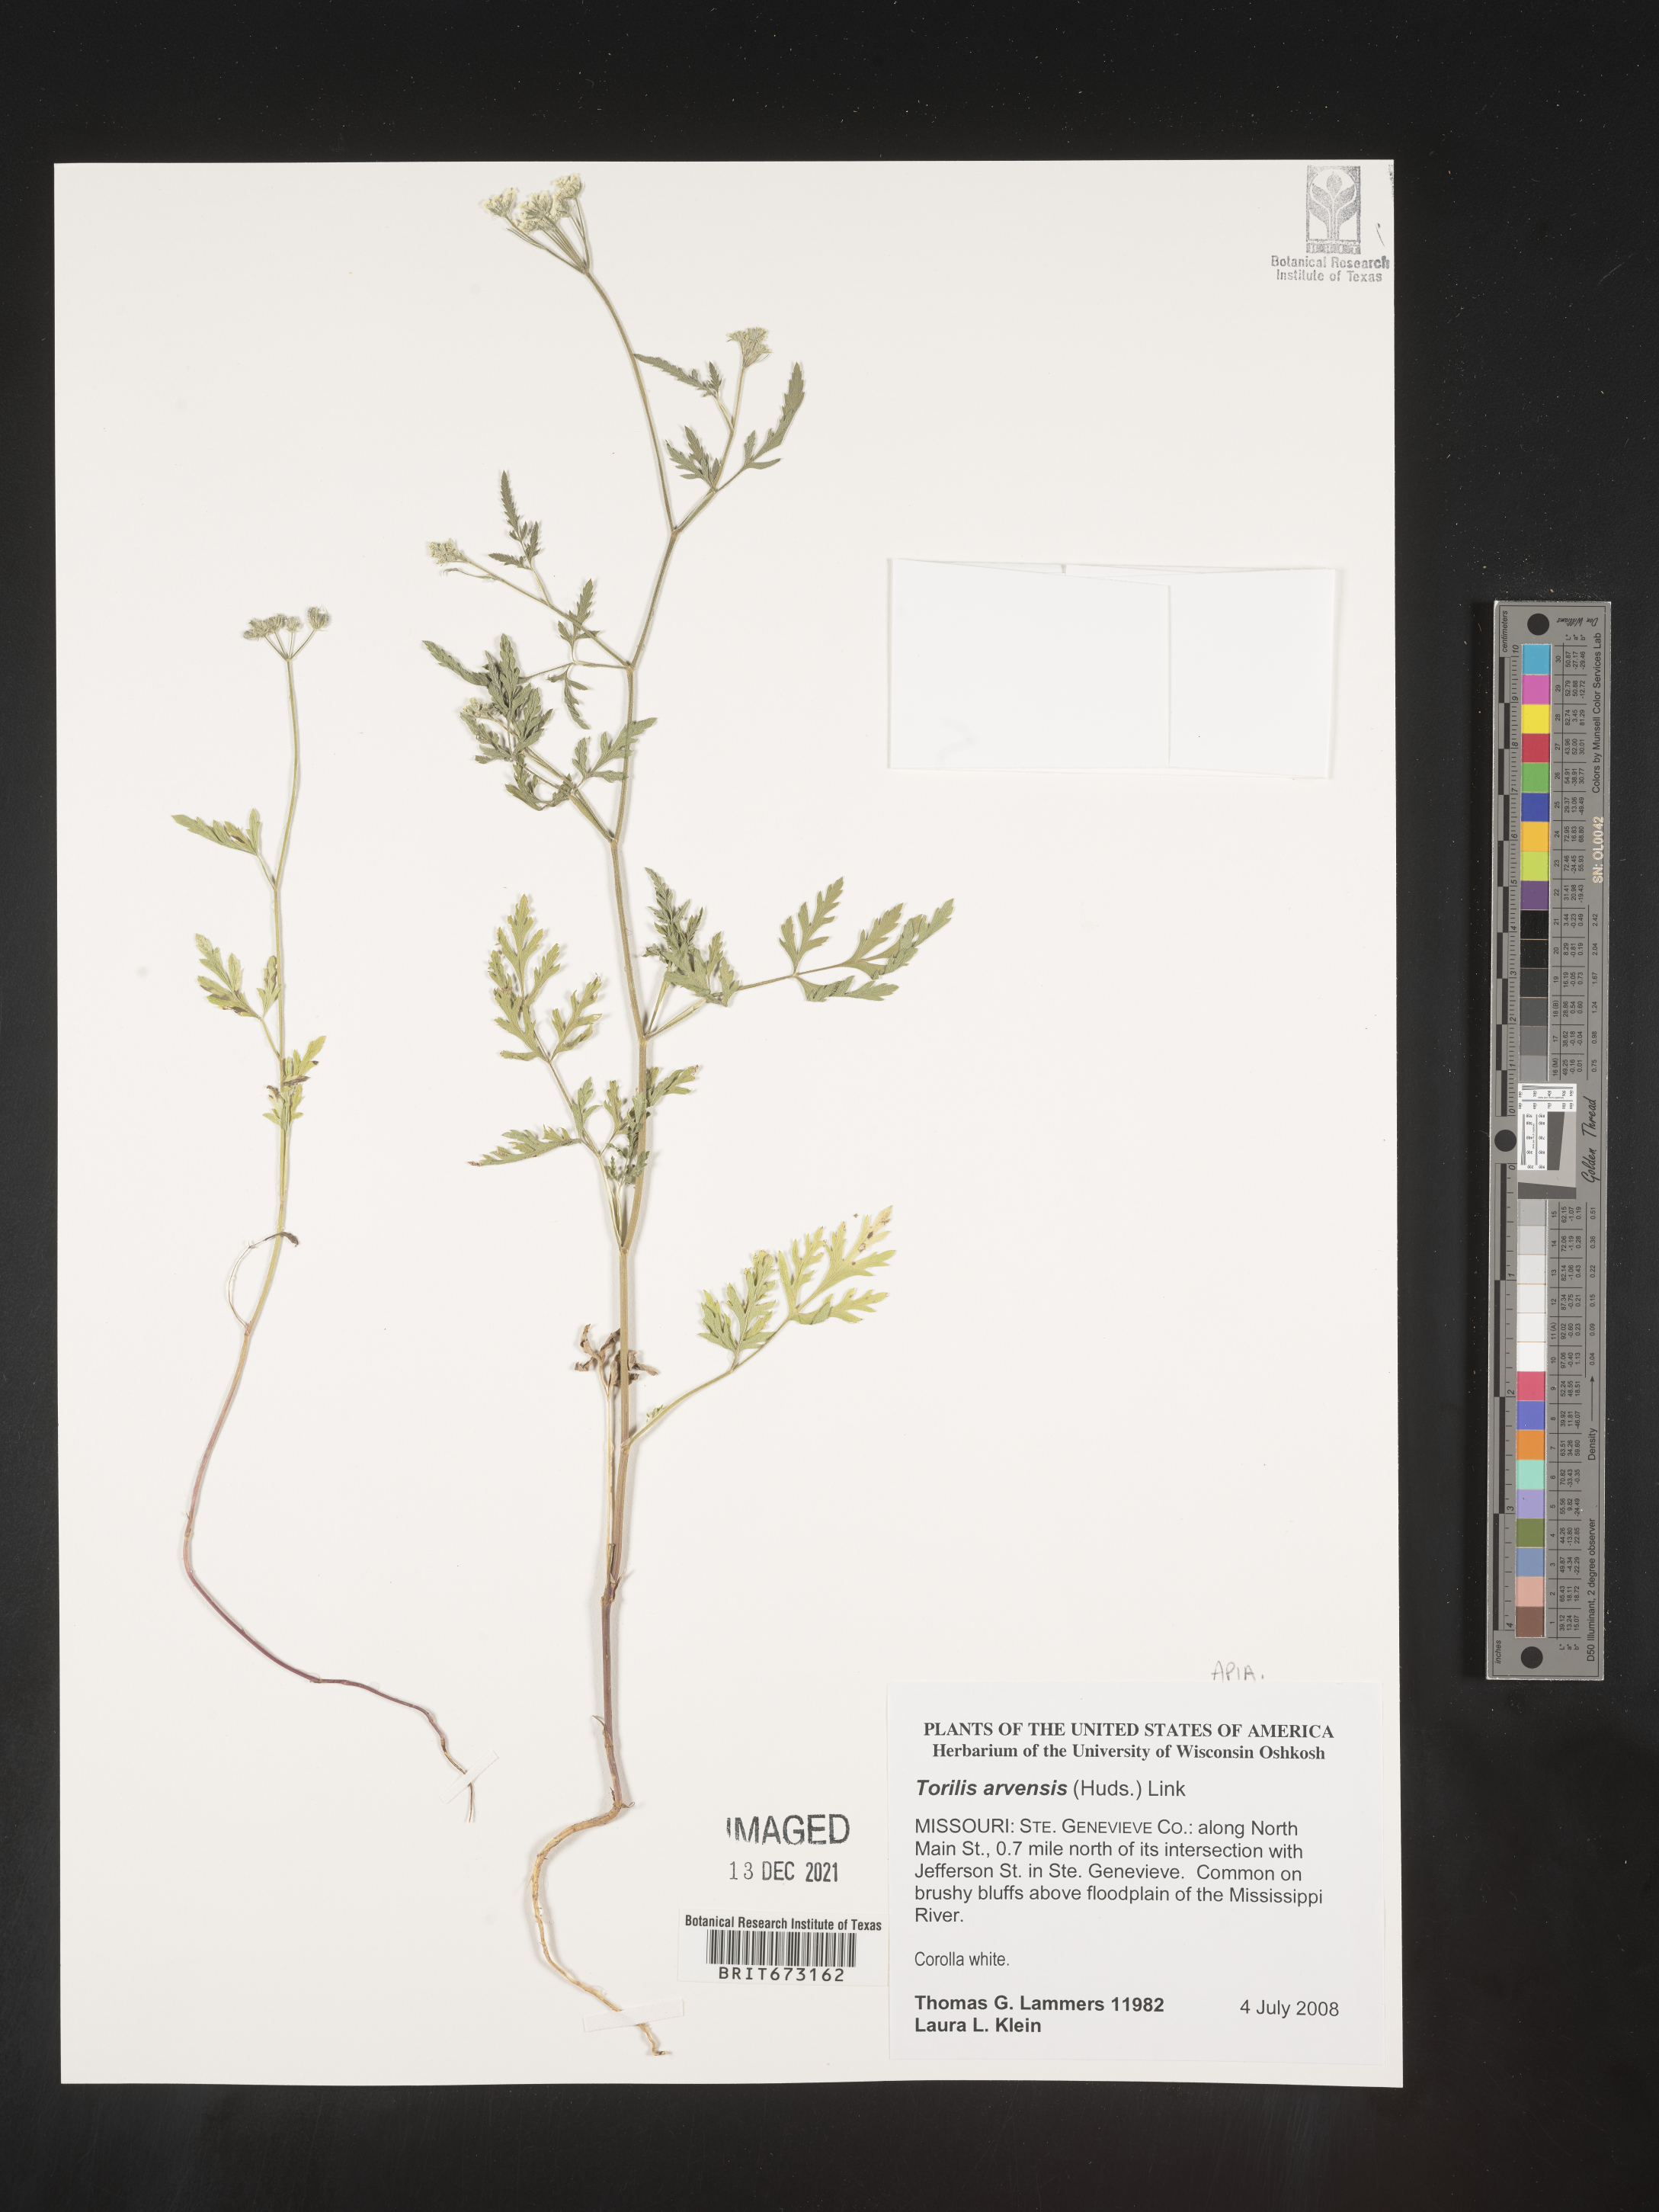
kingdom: Plantae
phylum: Tracheophyta
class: Magnoliopsida
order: Apiales
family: Apiaceae
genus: Torilis
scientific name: Torilis arvensis
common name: Spreading hedge-parsley
